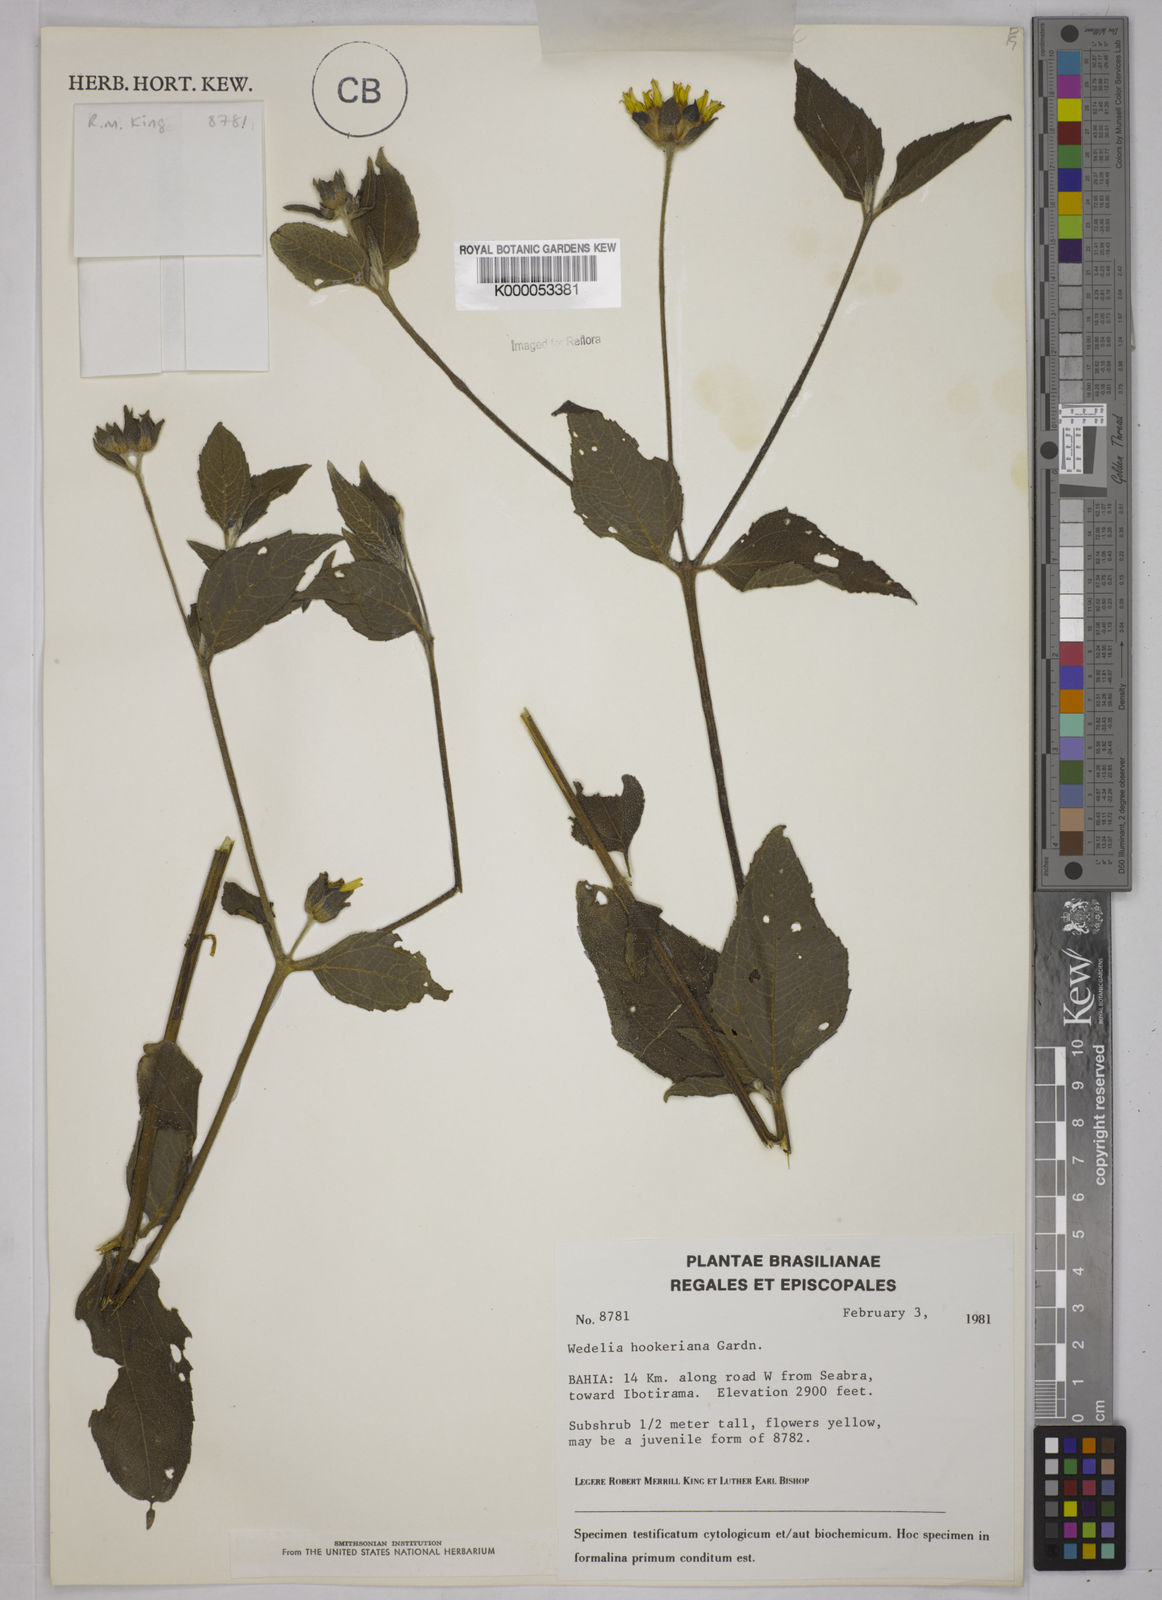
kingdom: Plantae
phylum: Tracheophyta
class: Magnoliopsida
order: Asterales
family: Asteraceae
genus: Wedelia
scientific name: Wedelia hookeriana
